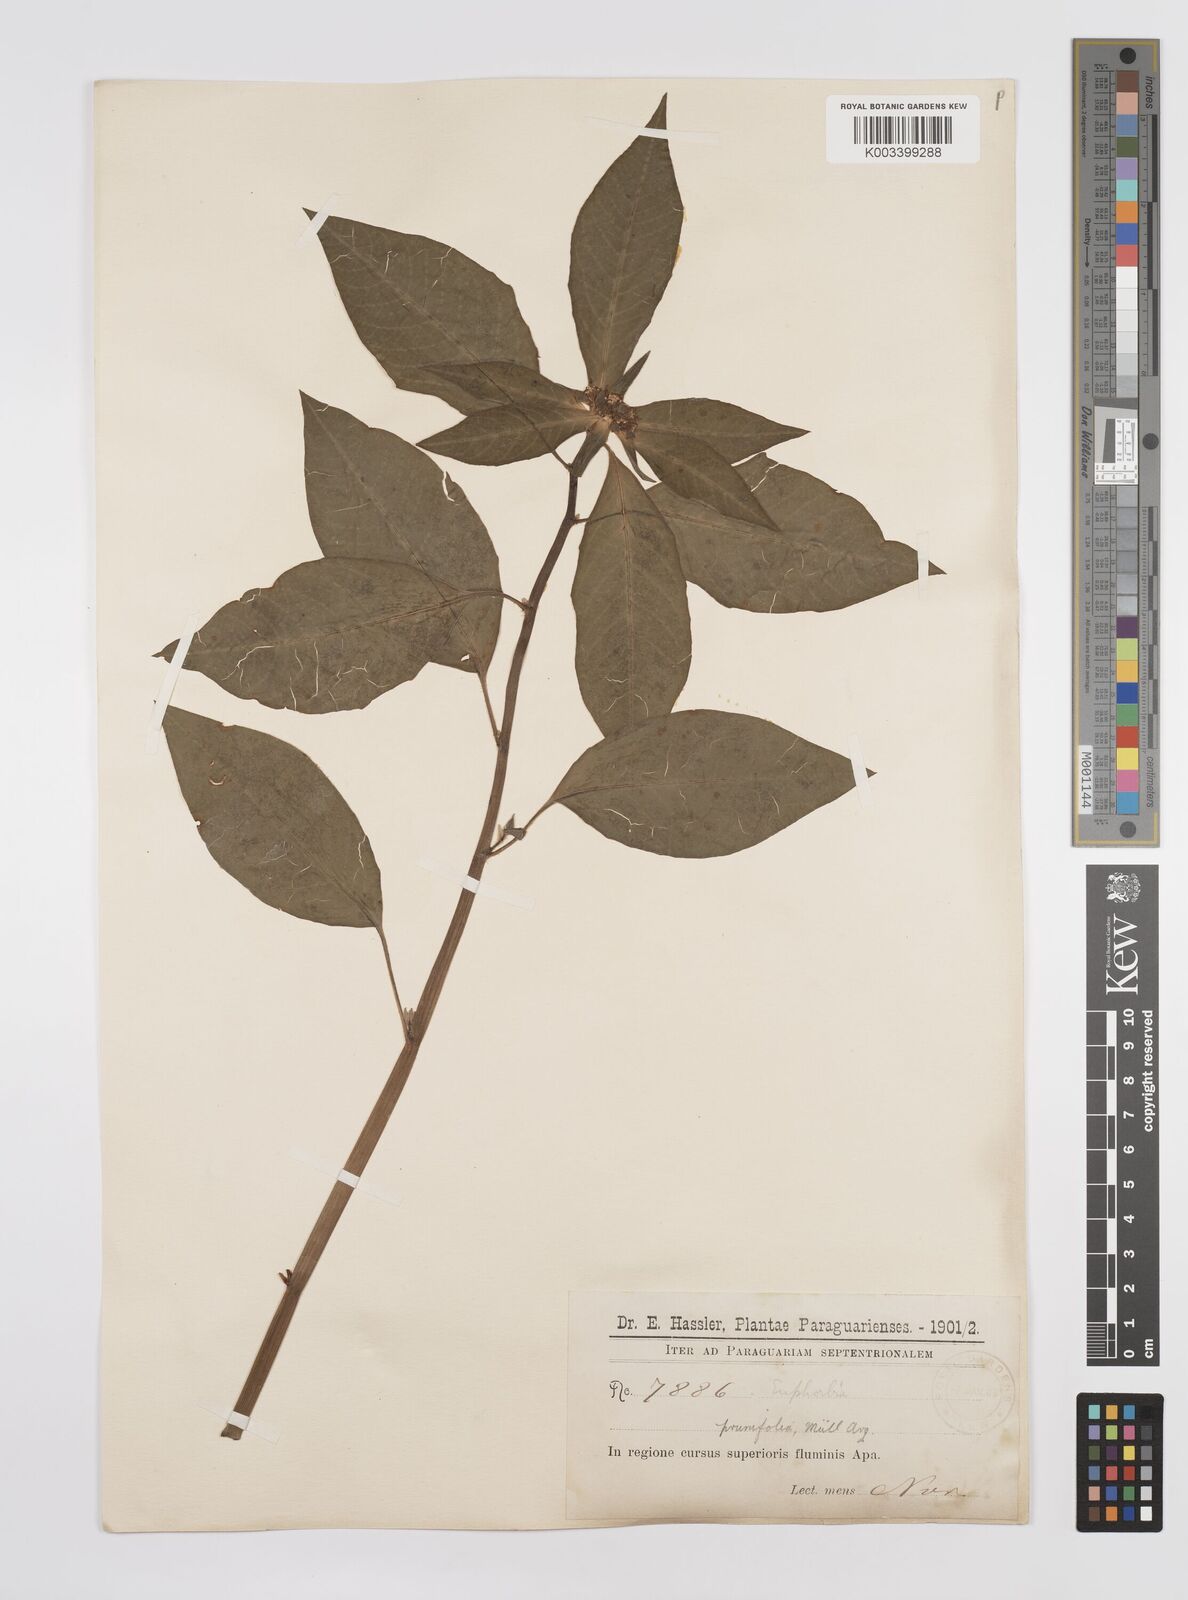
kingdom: Plantae
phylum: Tracheophyta
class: Magnoliopsida
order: Malpighiales
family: Euphorbiaceae
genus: Euphorbia
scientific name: Euphorbia heterophylla
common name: Mexican fireplant
